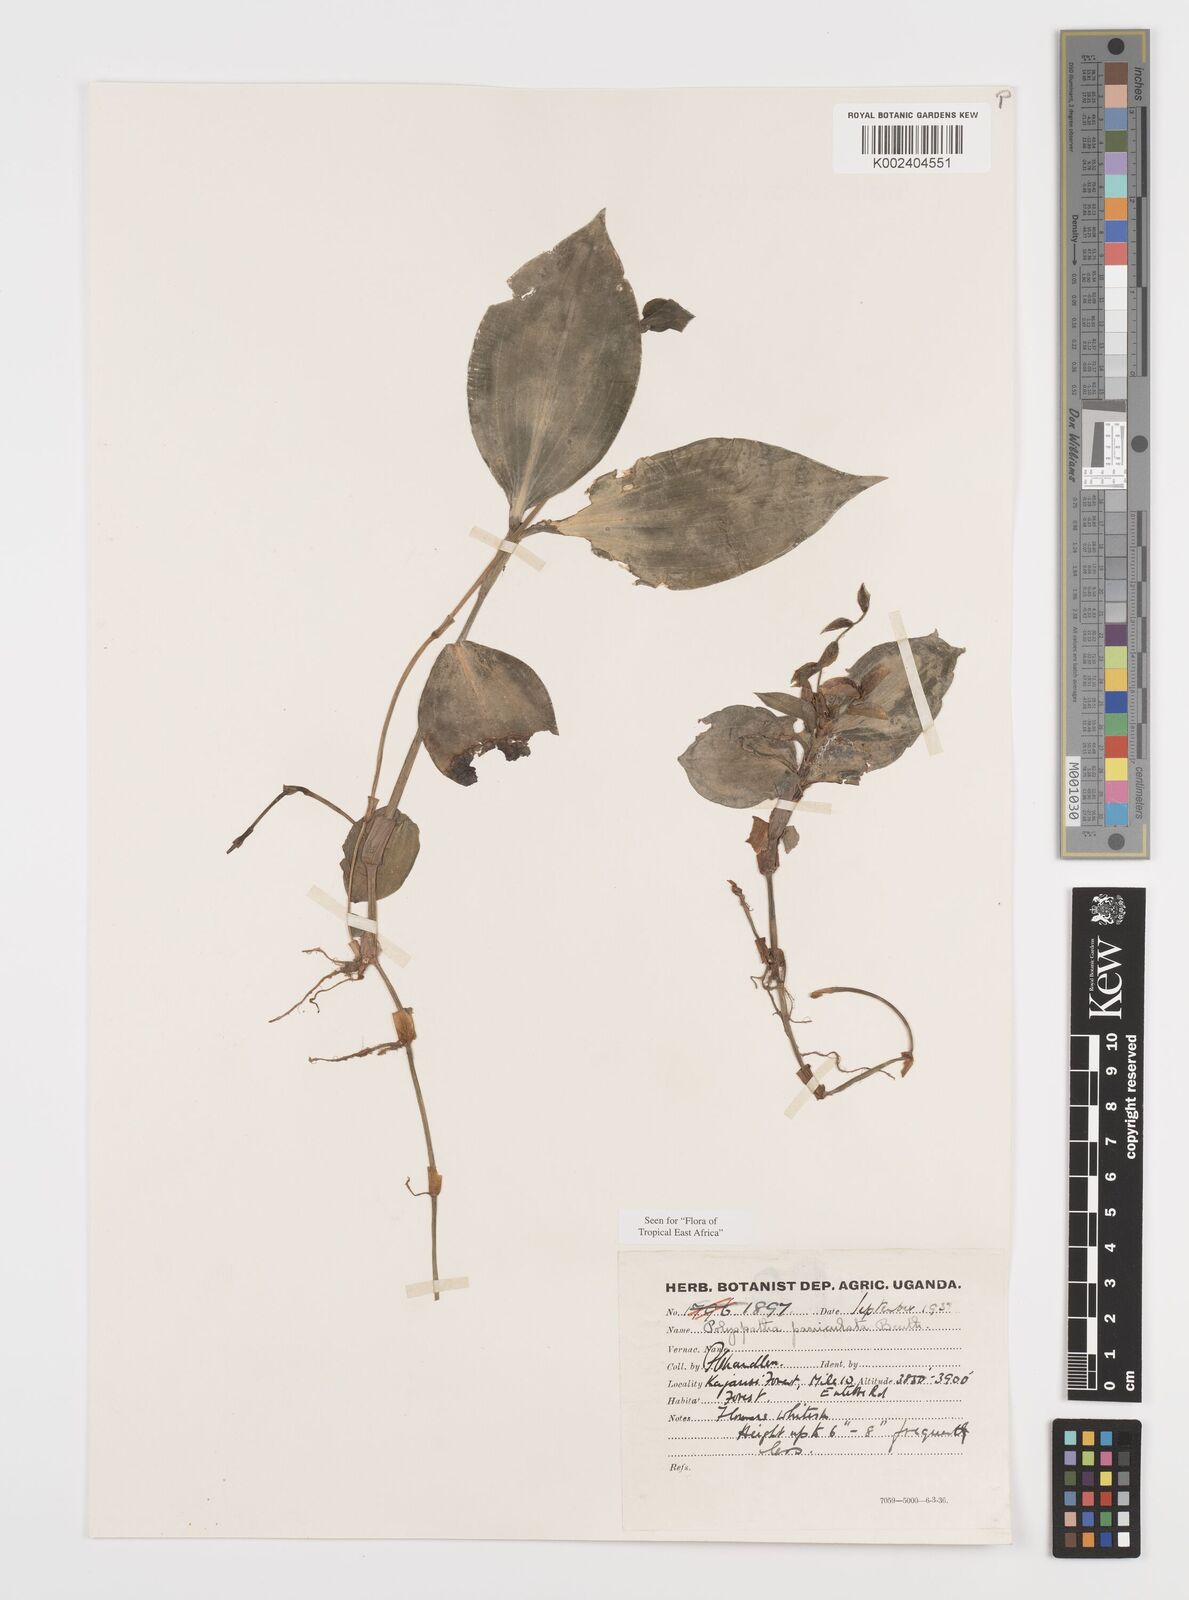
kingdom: Plantae
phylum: Tracheophyta
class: Liliopsida
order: Commelinales
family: Commelinaceae
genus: Polyspatha
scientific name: Polyspatha paniculata
